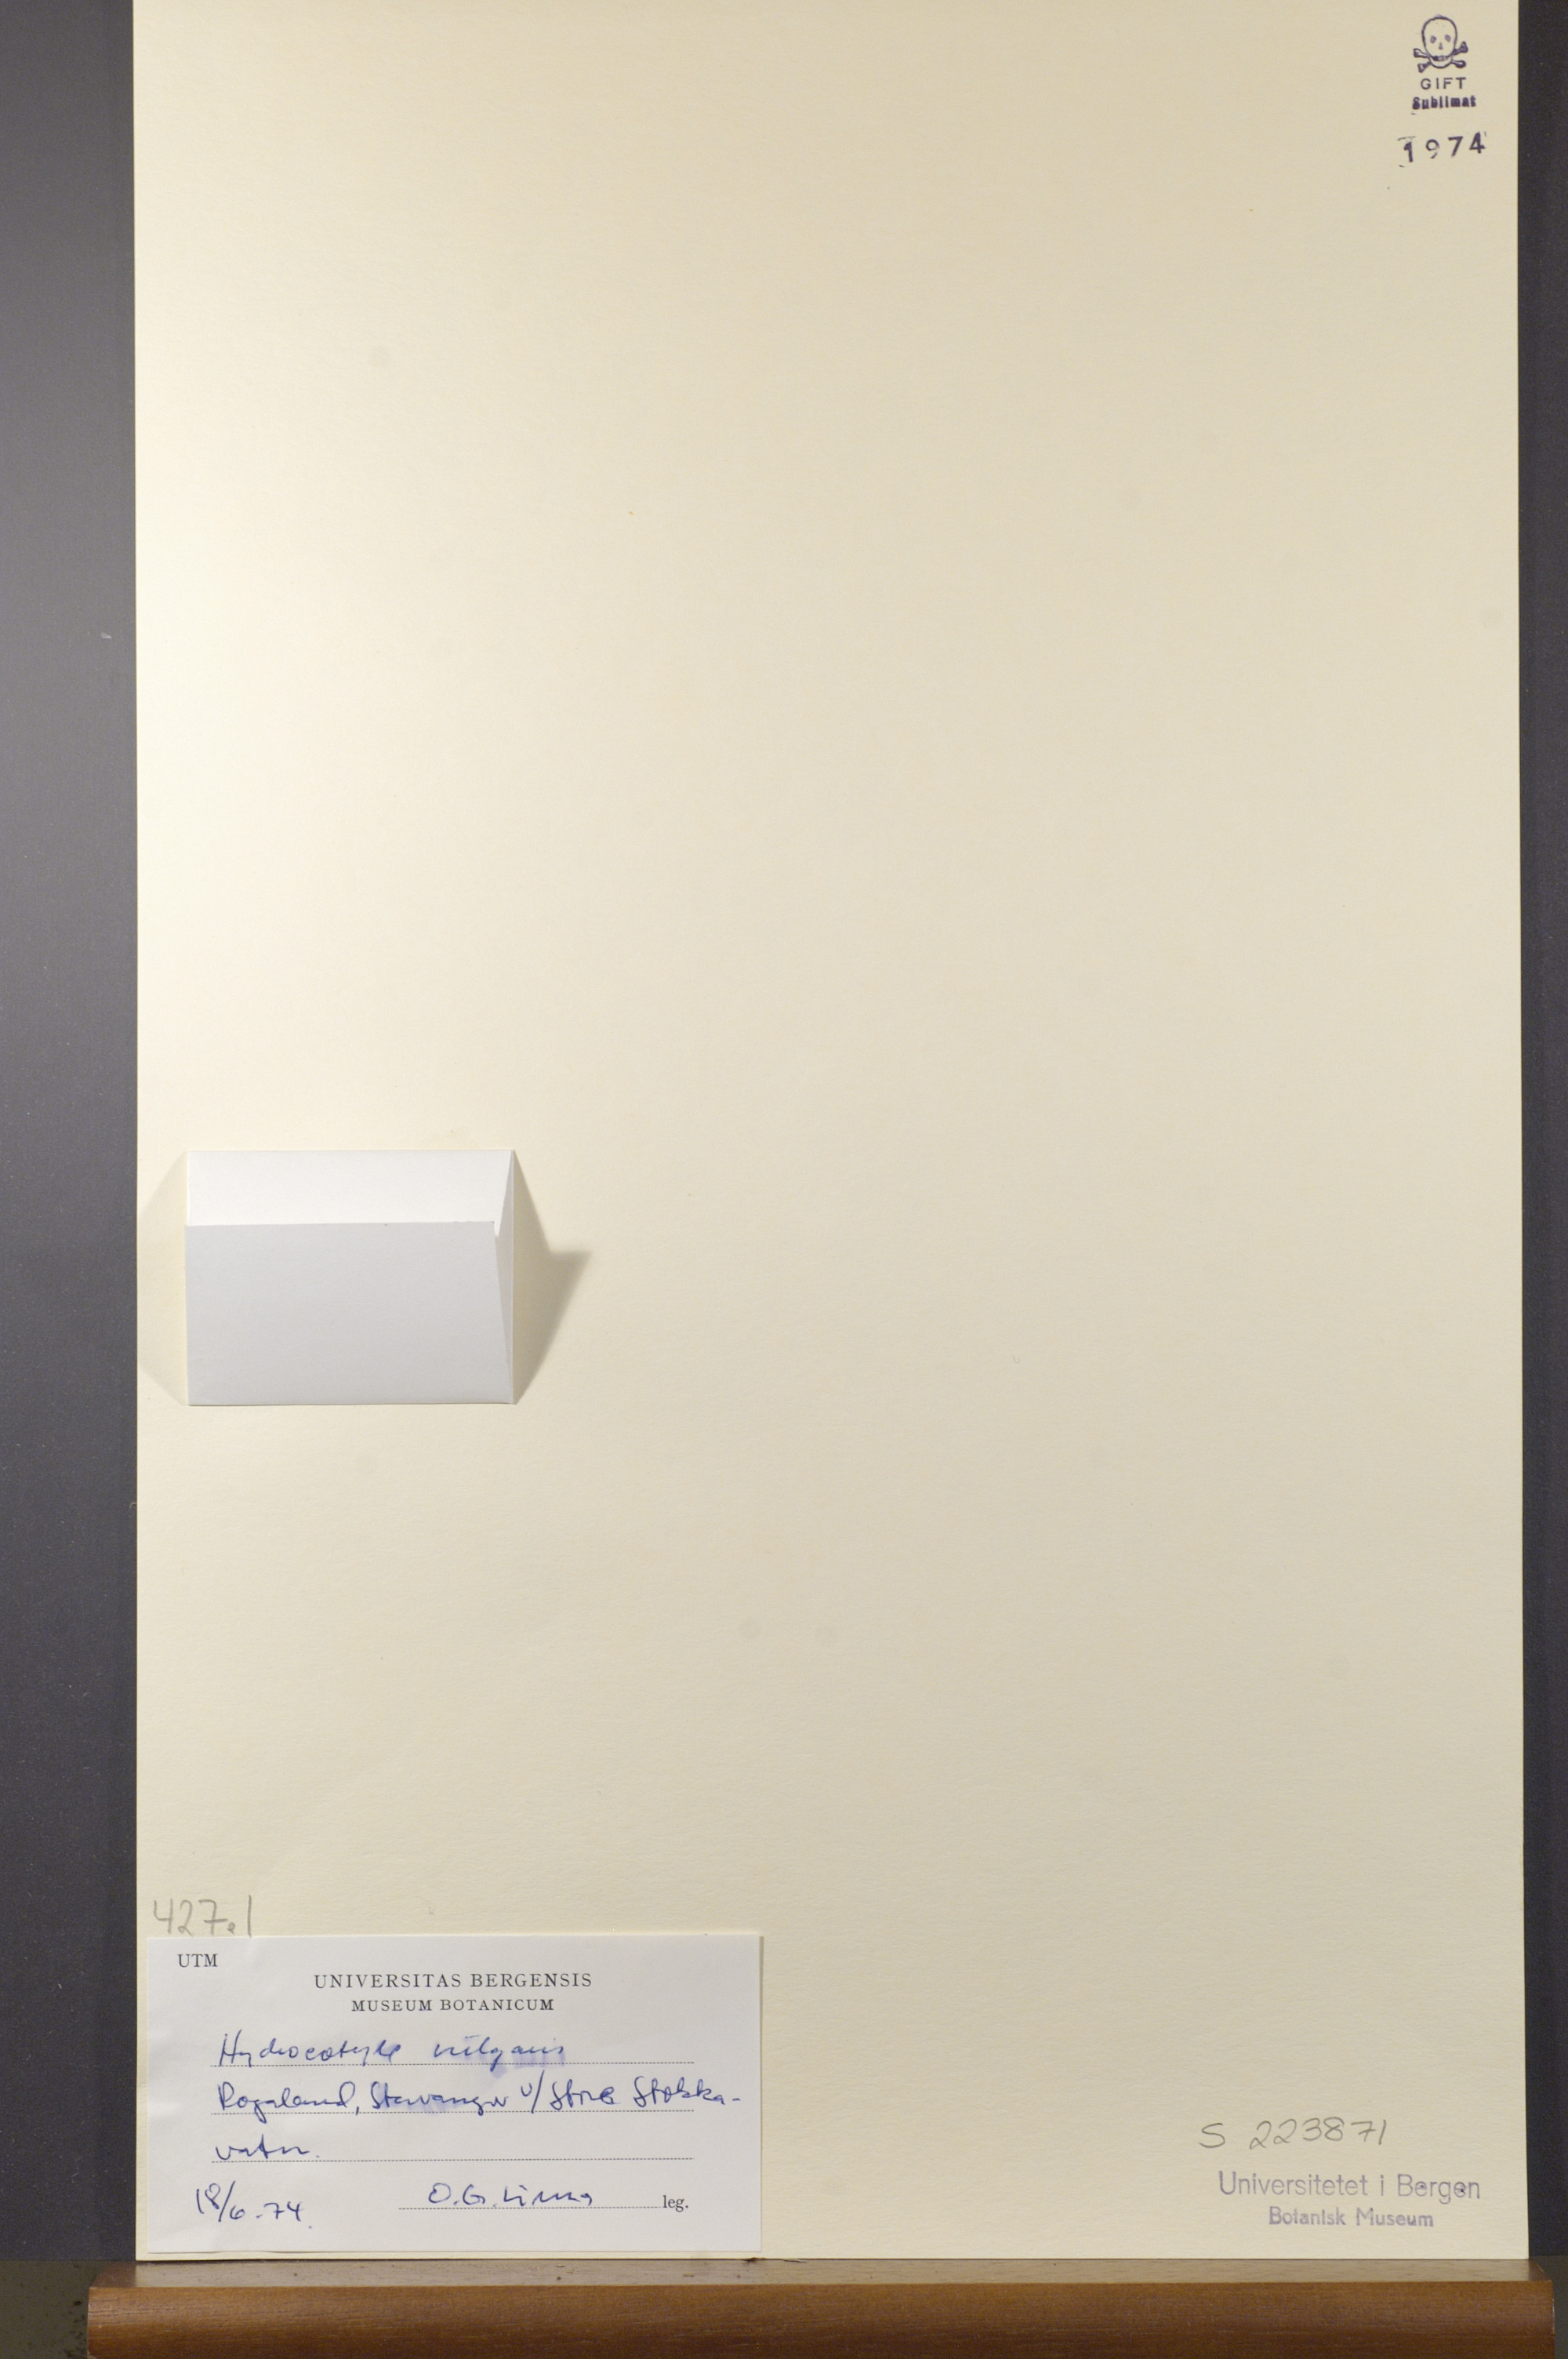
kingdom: Plantae
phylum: Tracheophyta
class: Magnoliopsida
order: Apiales
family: Araliaceae
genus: Hydrocotyle
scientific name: Hydrocotyle vulgaris
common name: Marsh pennywort
